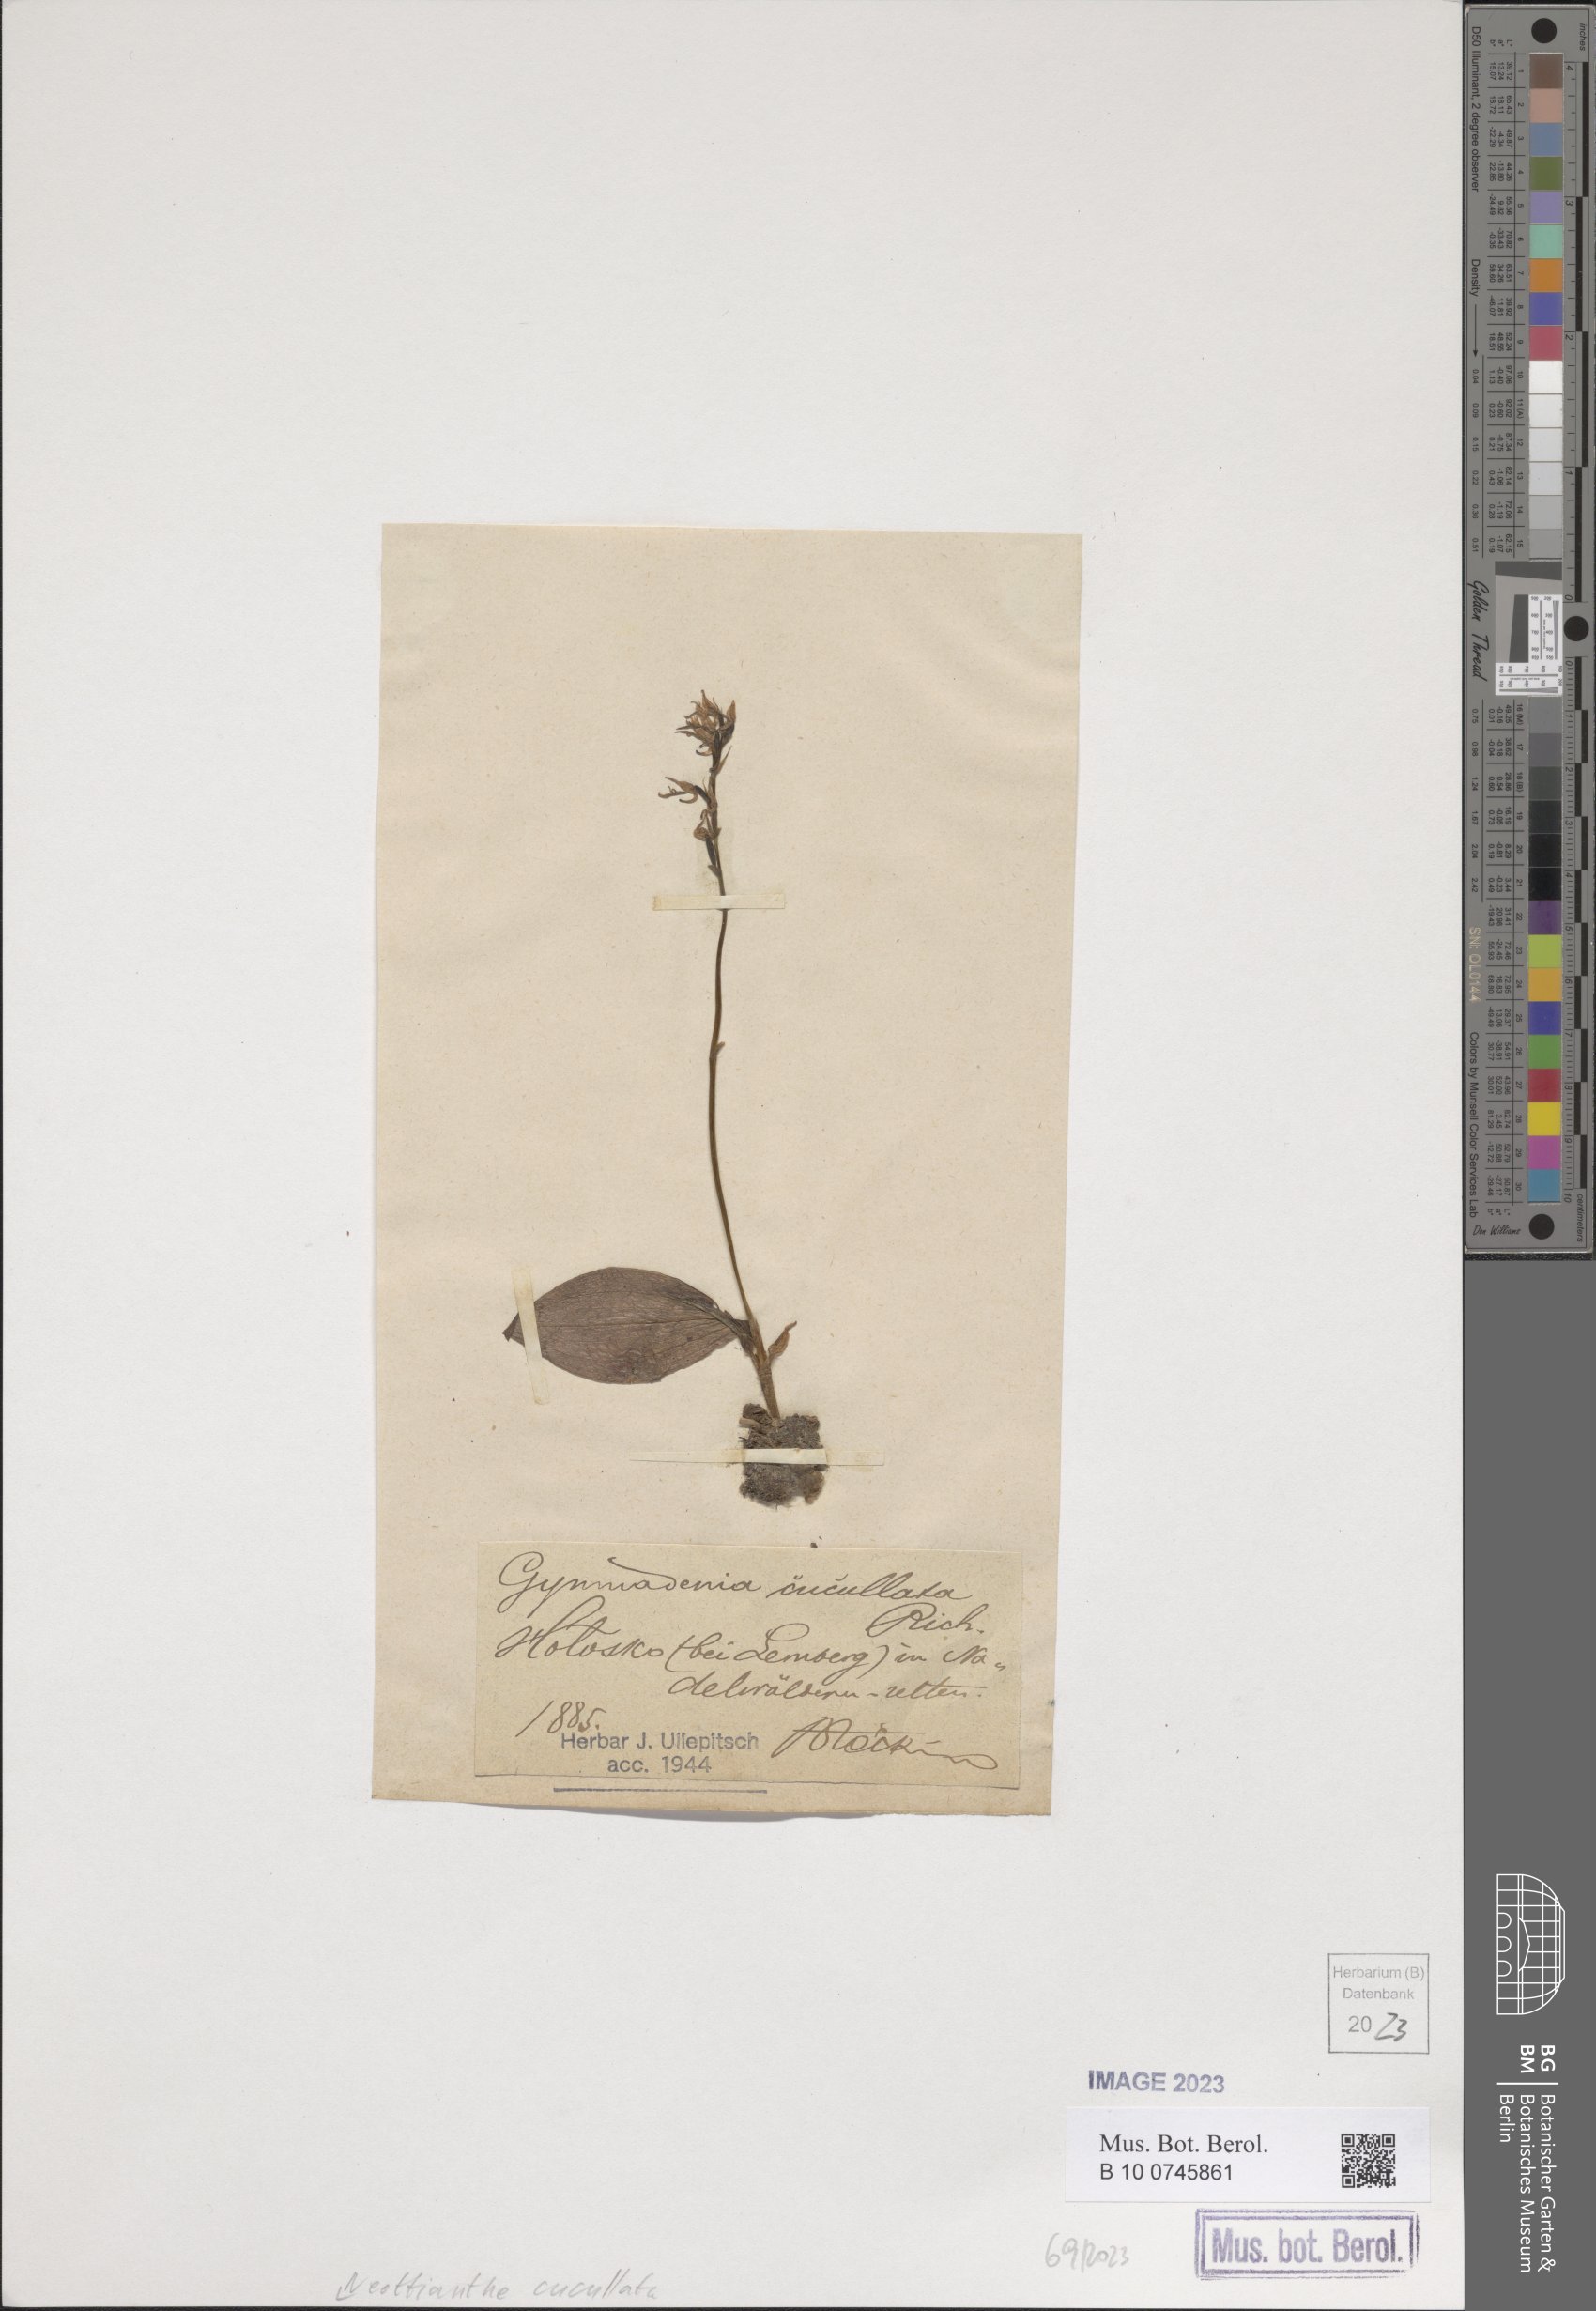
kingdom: Plantae
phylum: Tracheophyta
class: Liliopsida
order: Asparagales
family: Orchidaceae
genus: Hemipilia
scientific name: Hemipilia cucullata
